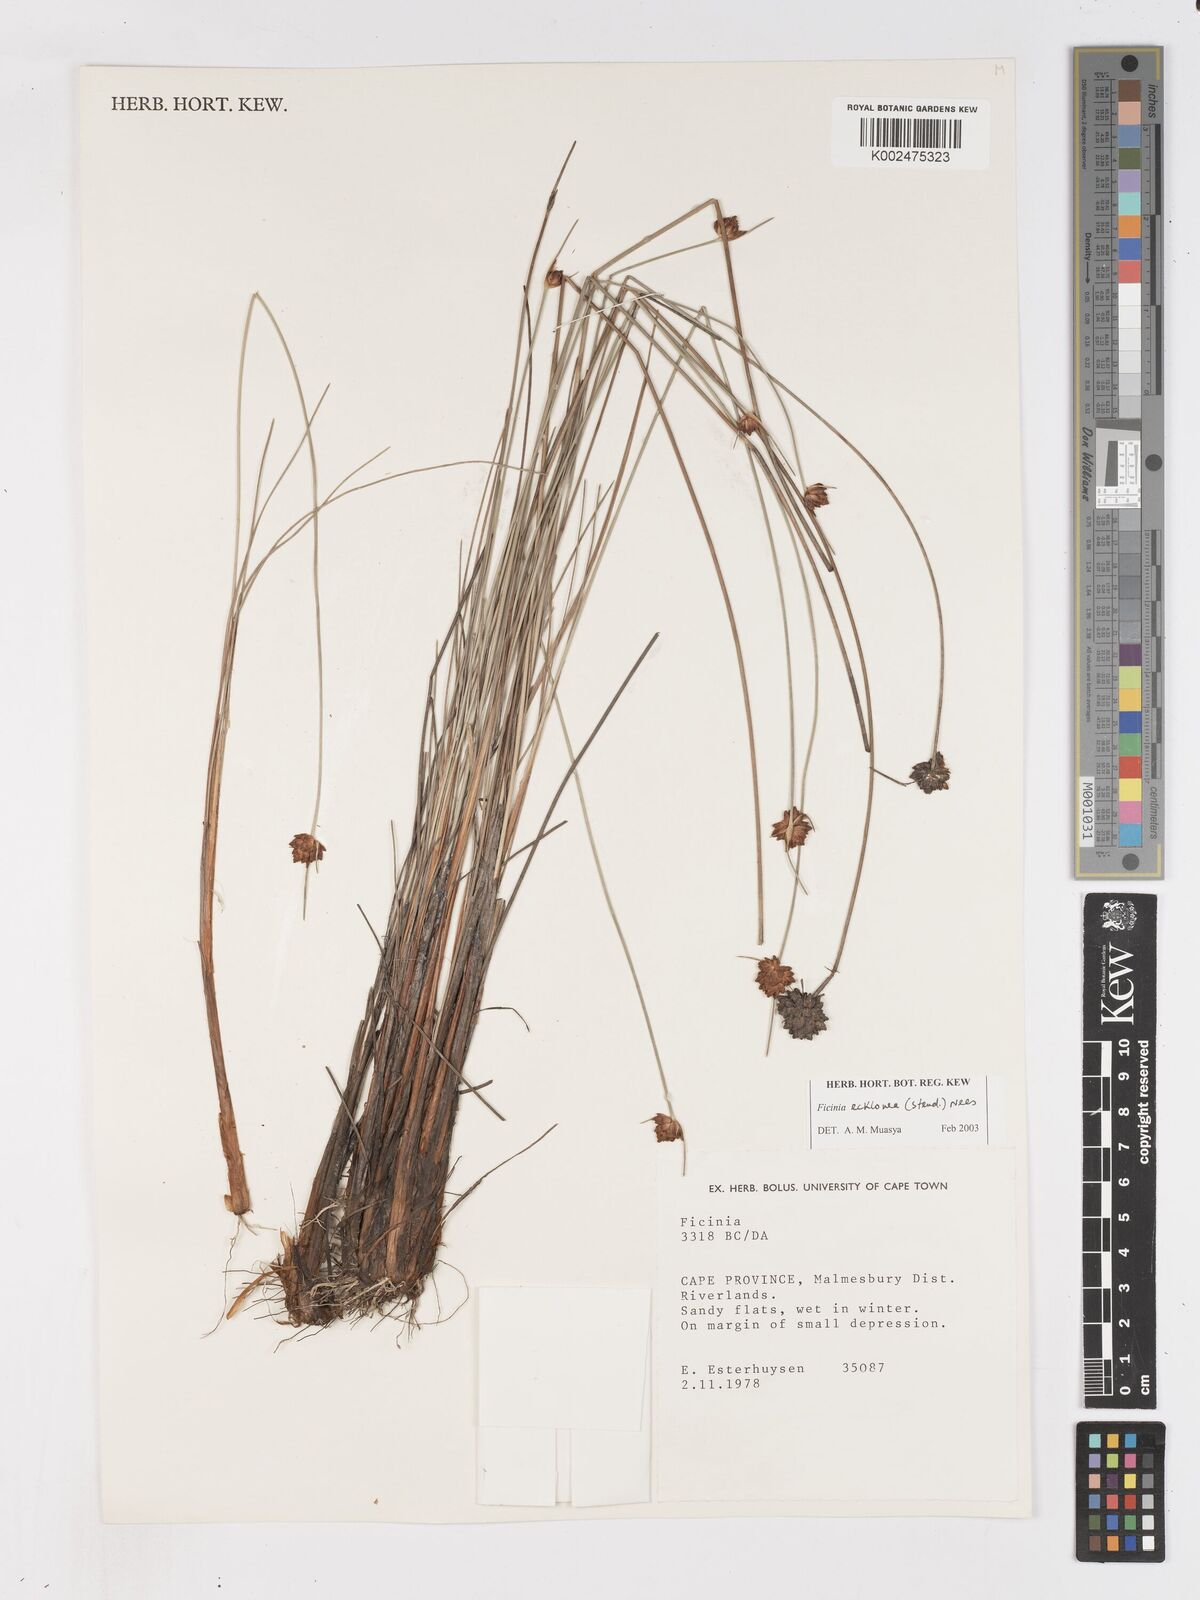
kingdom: Plantae
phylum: Tracheophyta
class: Liliopsida
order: Poales
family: Cyperaceae
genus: Ficinia
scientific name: Ficinia ecklonea
